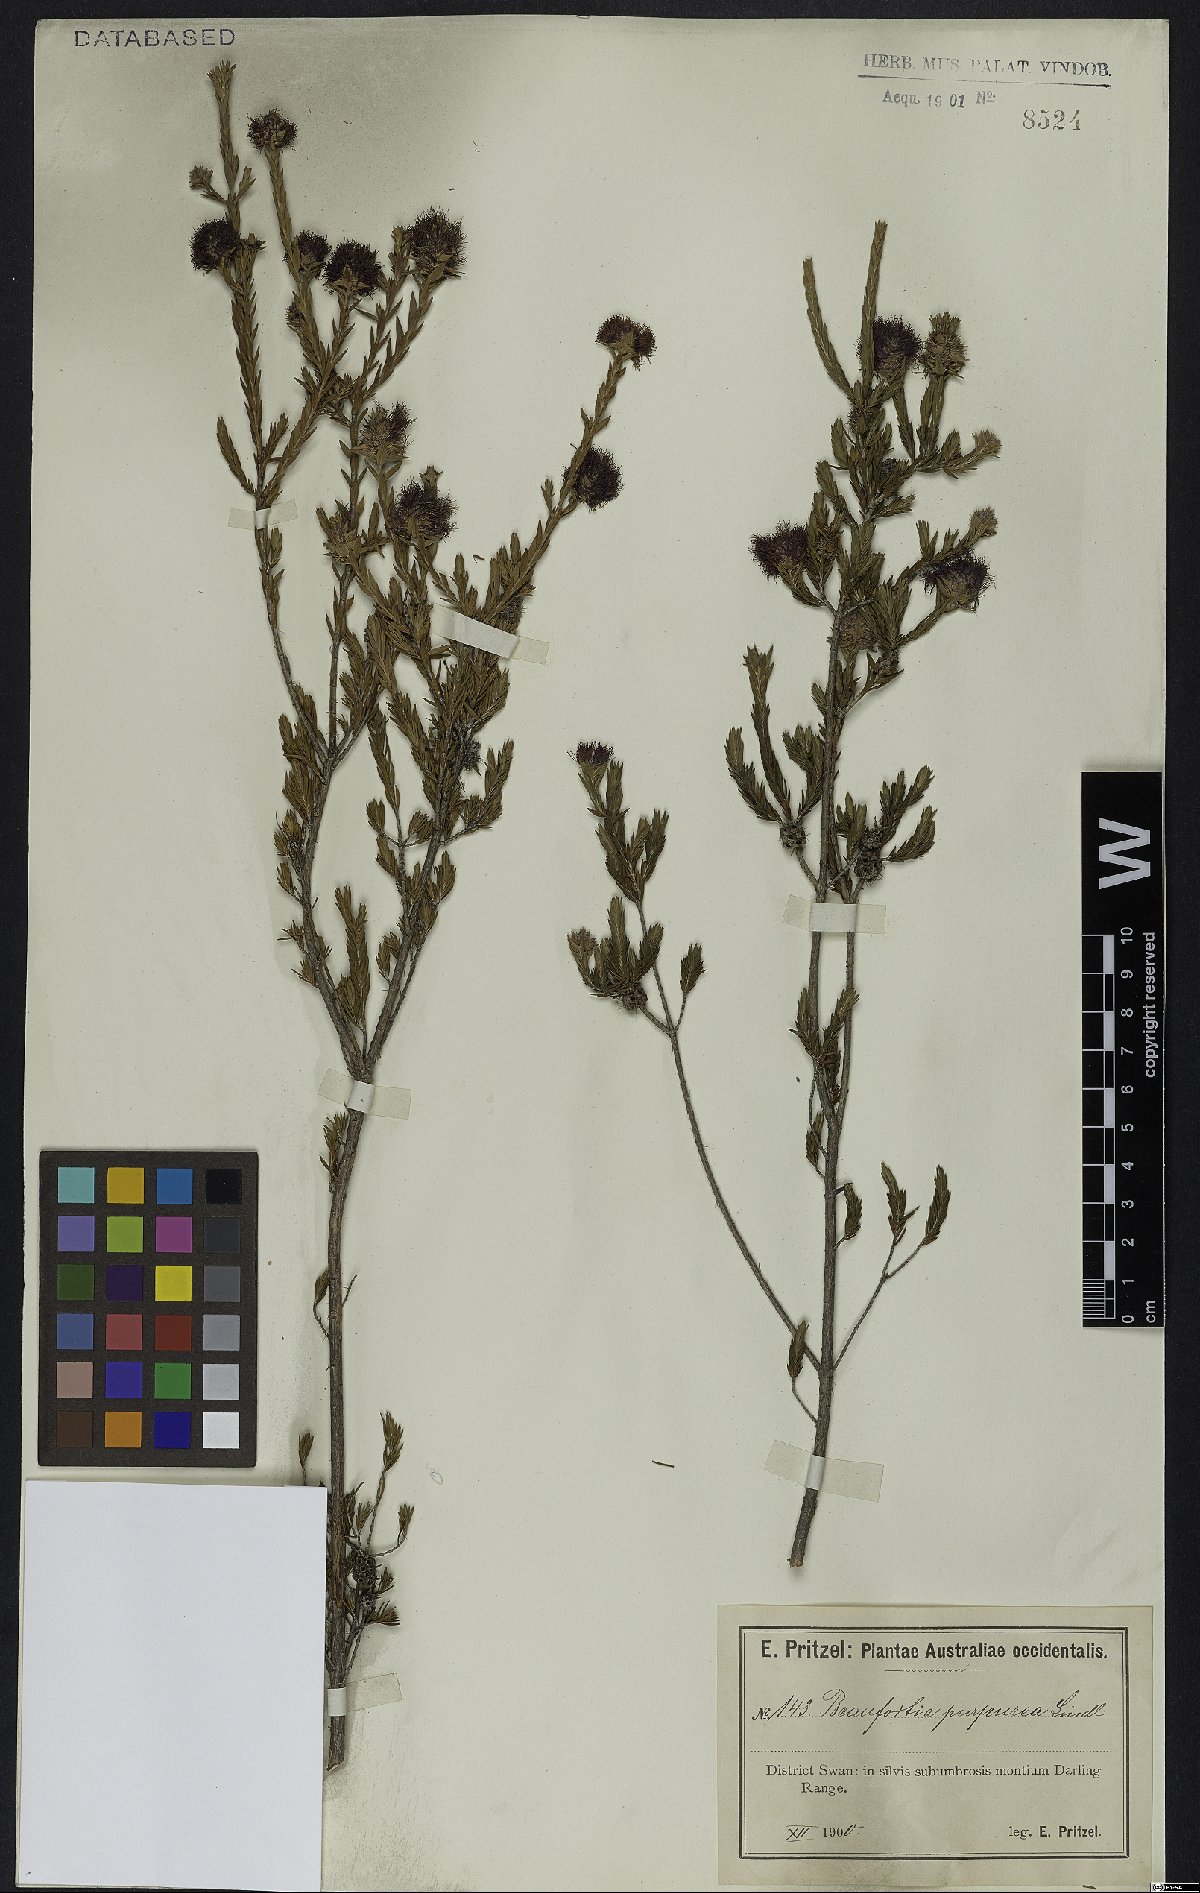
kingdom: Plantae
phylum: Tracheophyta
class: Magnoliopsida
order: Myrtales
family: Myrtaceae
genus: Melaleuca
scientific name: Melaleuca purpurea
